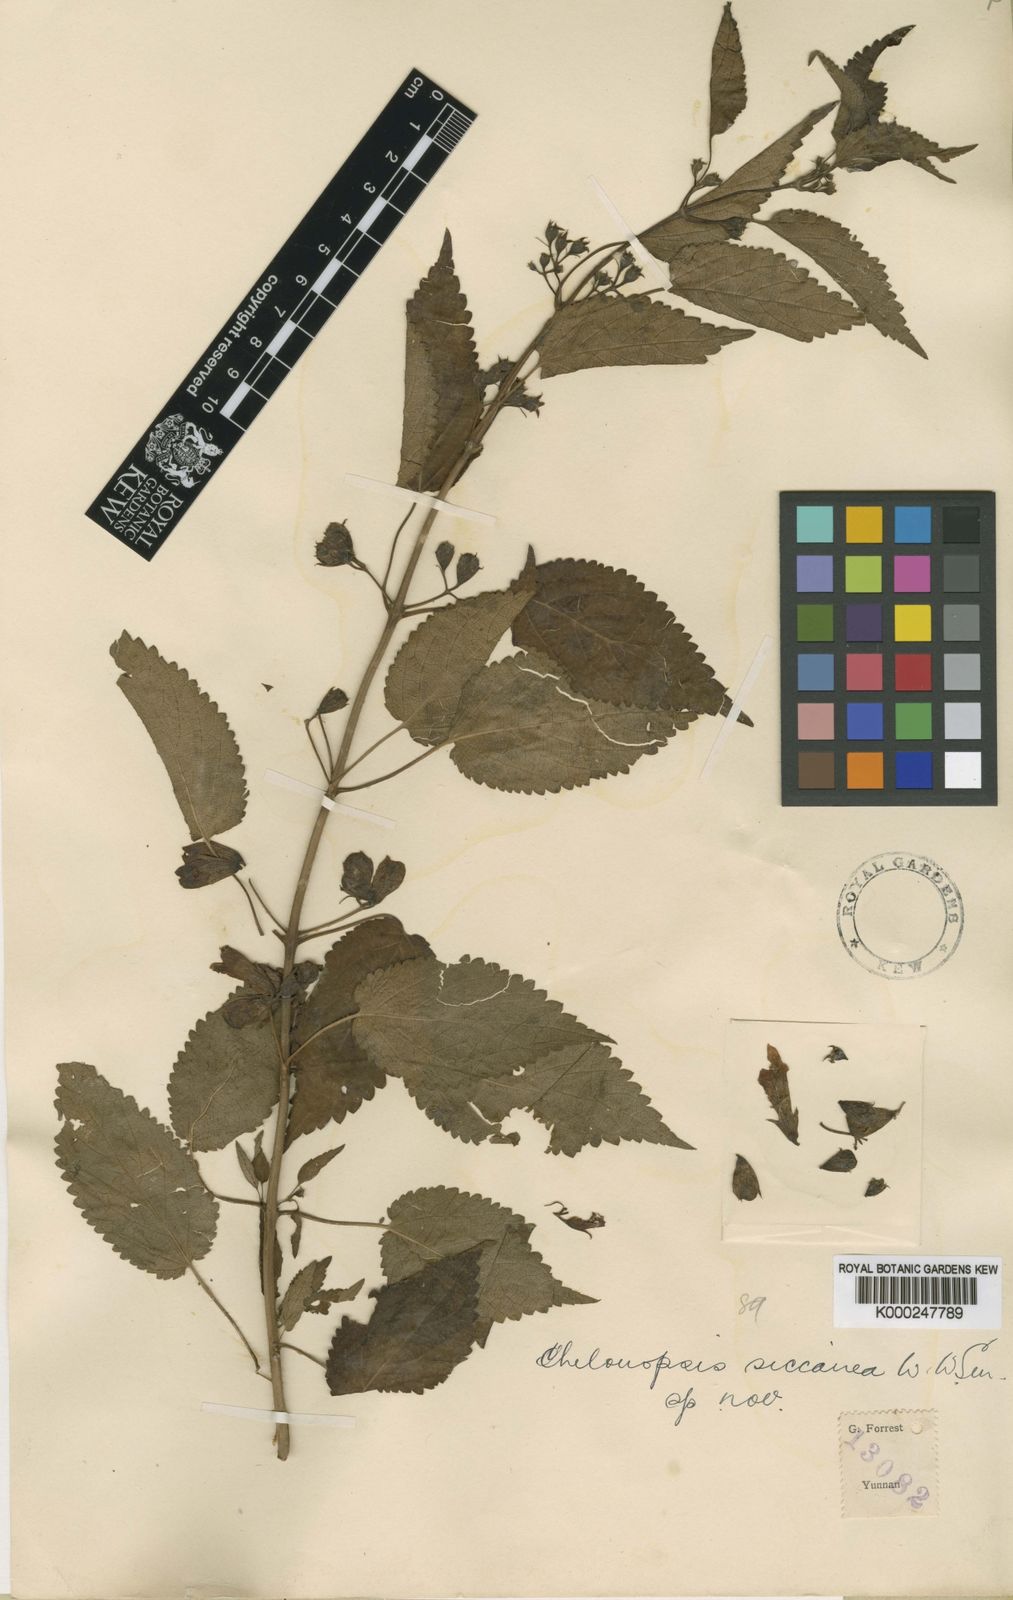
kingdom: Plantae
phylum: Tracheophyta
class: Magnoliopsida
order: Lamiales
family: Lamiaceae
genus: Chelonopsis
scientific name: Chelonopsis siccanea
